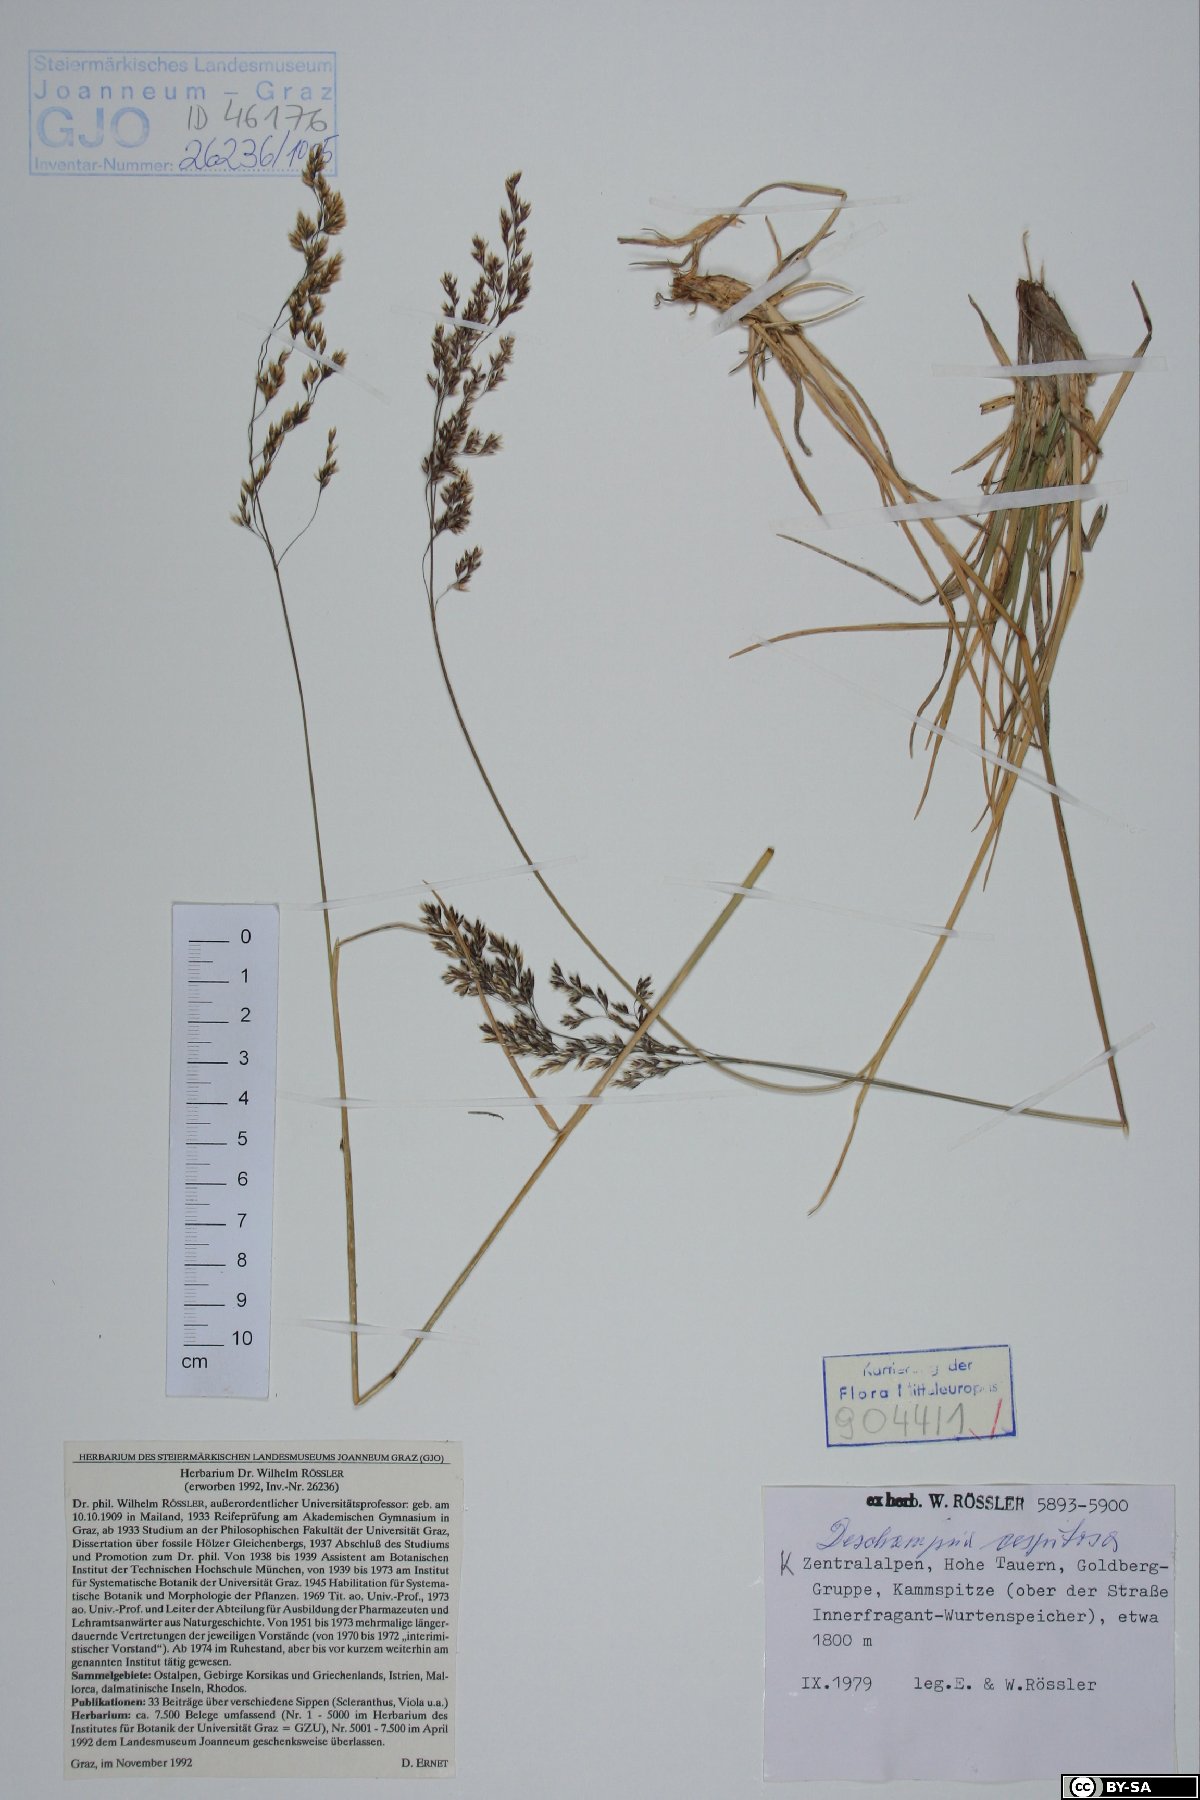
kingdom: Plantae
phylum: Tracheophyta
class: Liliopsida
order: Poales
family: Poaceae
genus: Deschampsia
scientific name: Deschampsia cespitosa
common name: Tufted hair-grass
